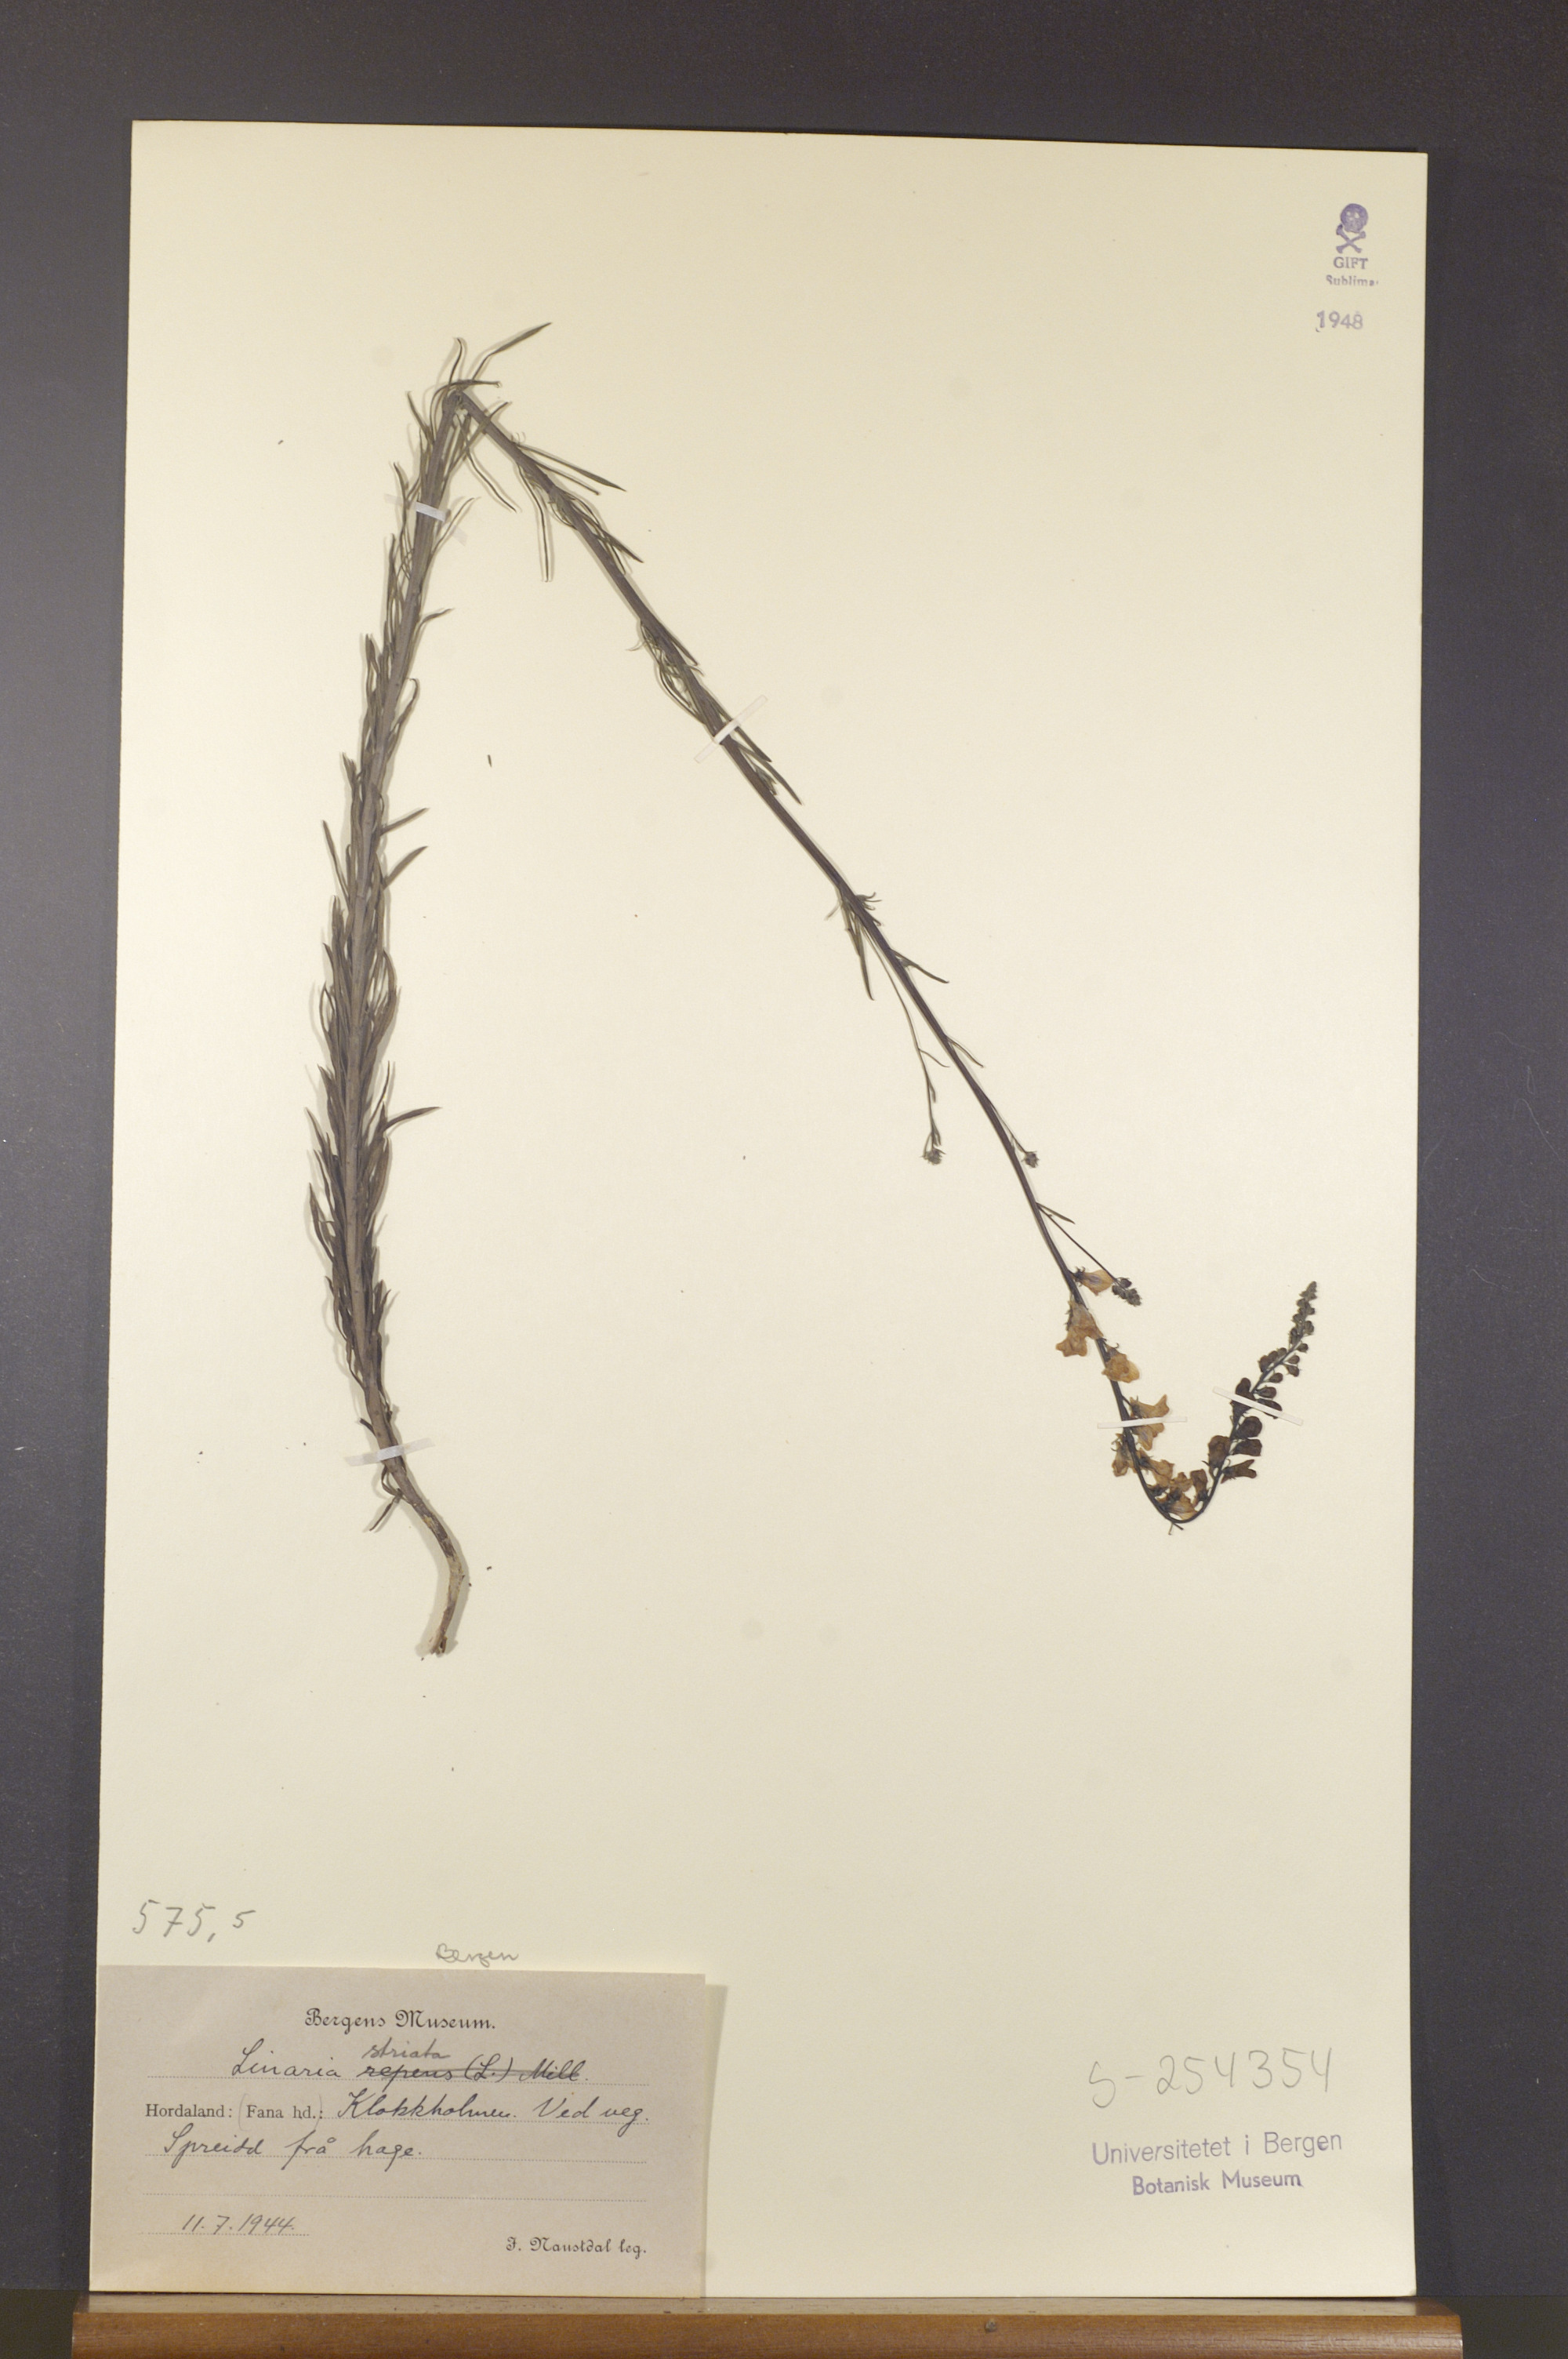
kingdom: Plantae
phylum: Tracheophyta
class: Magnoliopsida
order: Lamiales
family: Plantaginaceae
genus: Linaria
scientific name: Linaria repens
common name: Pale toadflax
